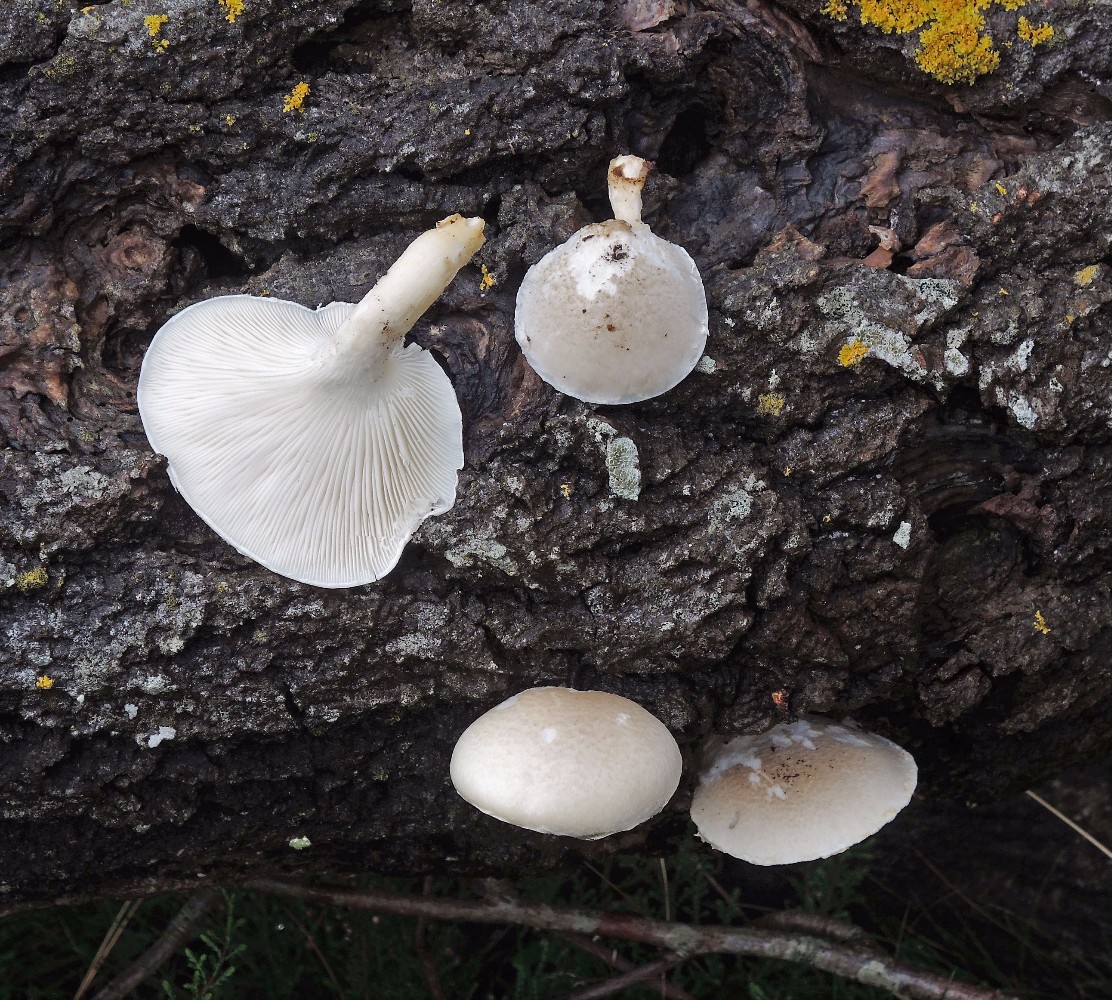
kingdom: Fungi
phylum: Basidiomycota
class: Agaricomycetes
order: Agaricales
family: Pleurotaceae
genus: Pleurotus
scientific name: Pleurotus dryinus
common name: korkagtig østershat
